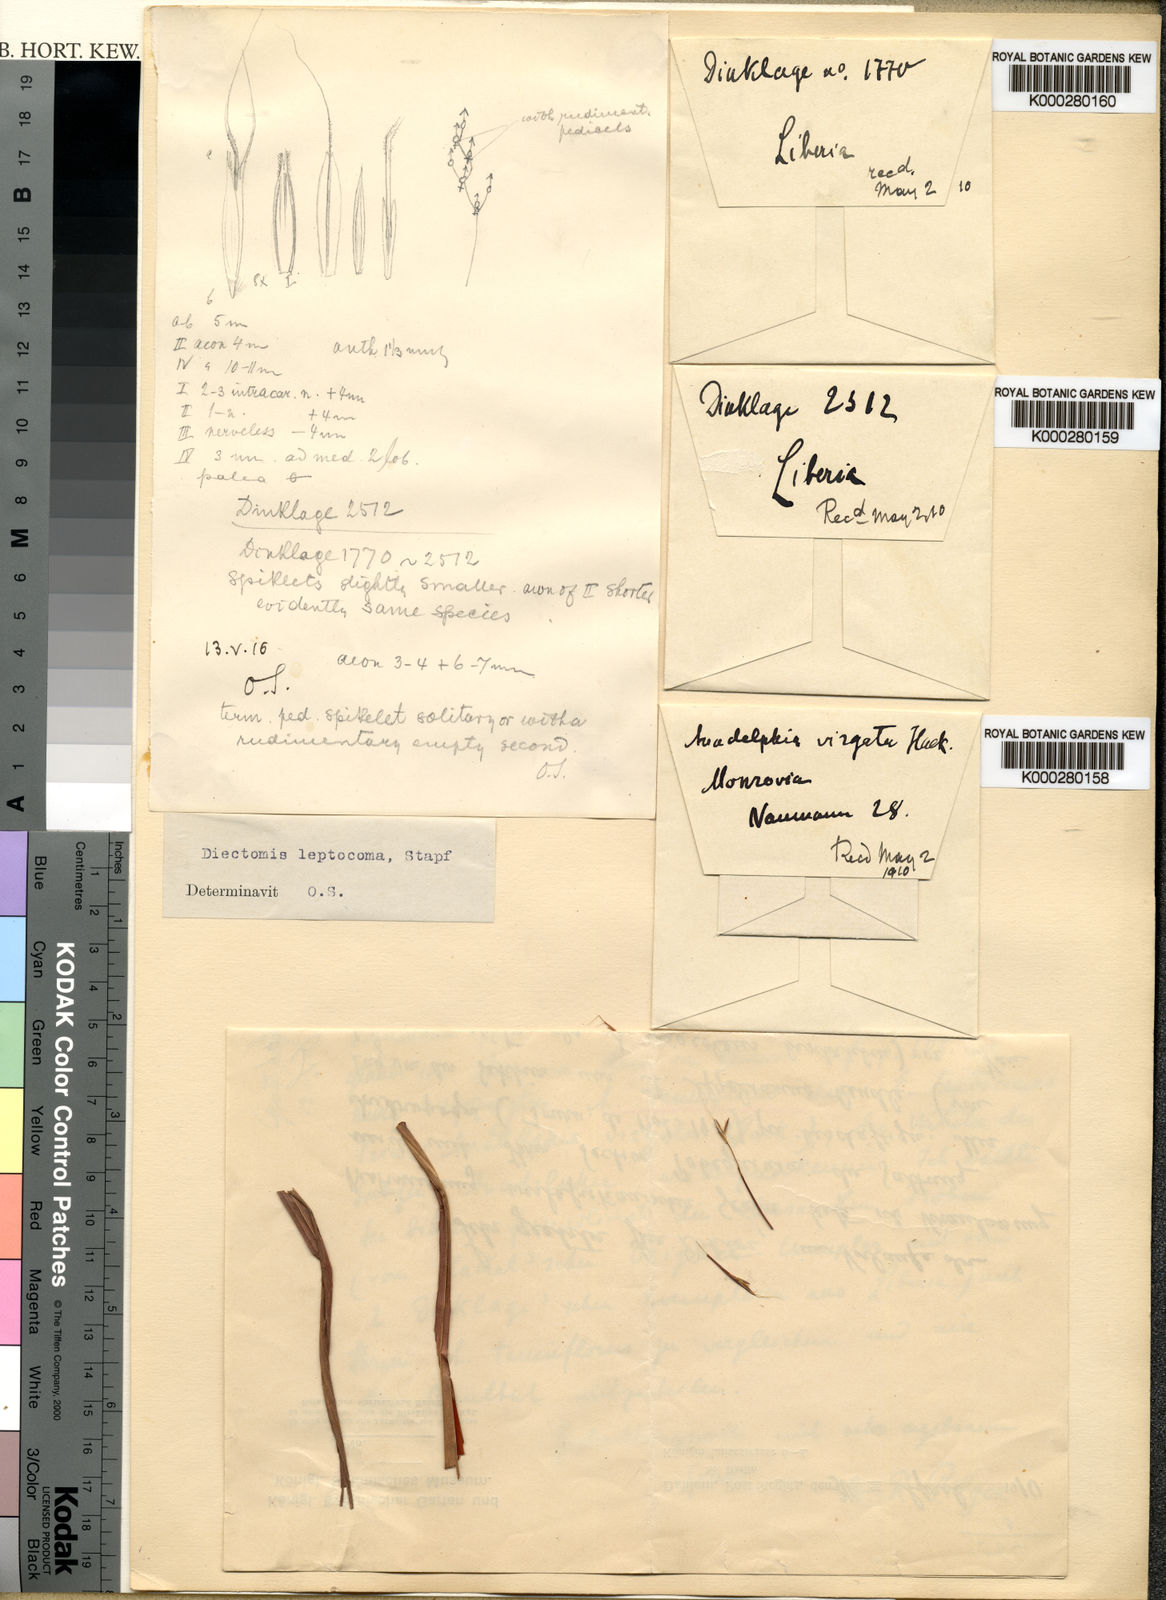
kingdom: Plantae
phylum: Tracheophyta
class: Liliopsida
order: Poales
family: Poaceae
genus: Anadelphia
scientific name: Anadelphia leptocoma
